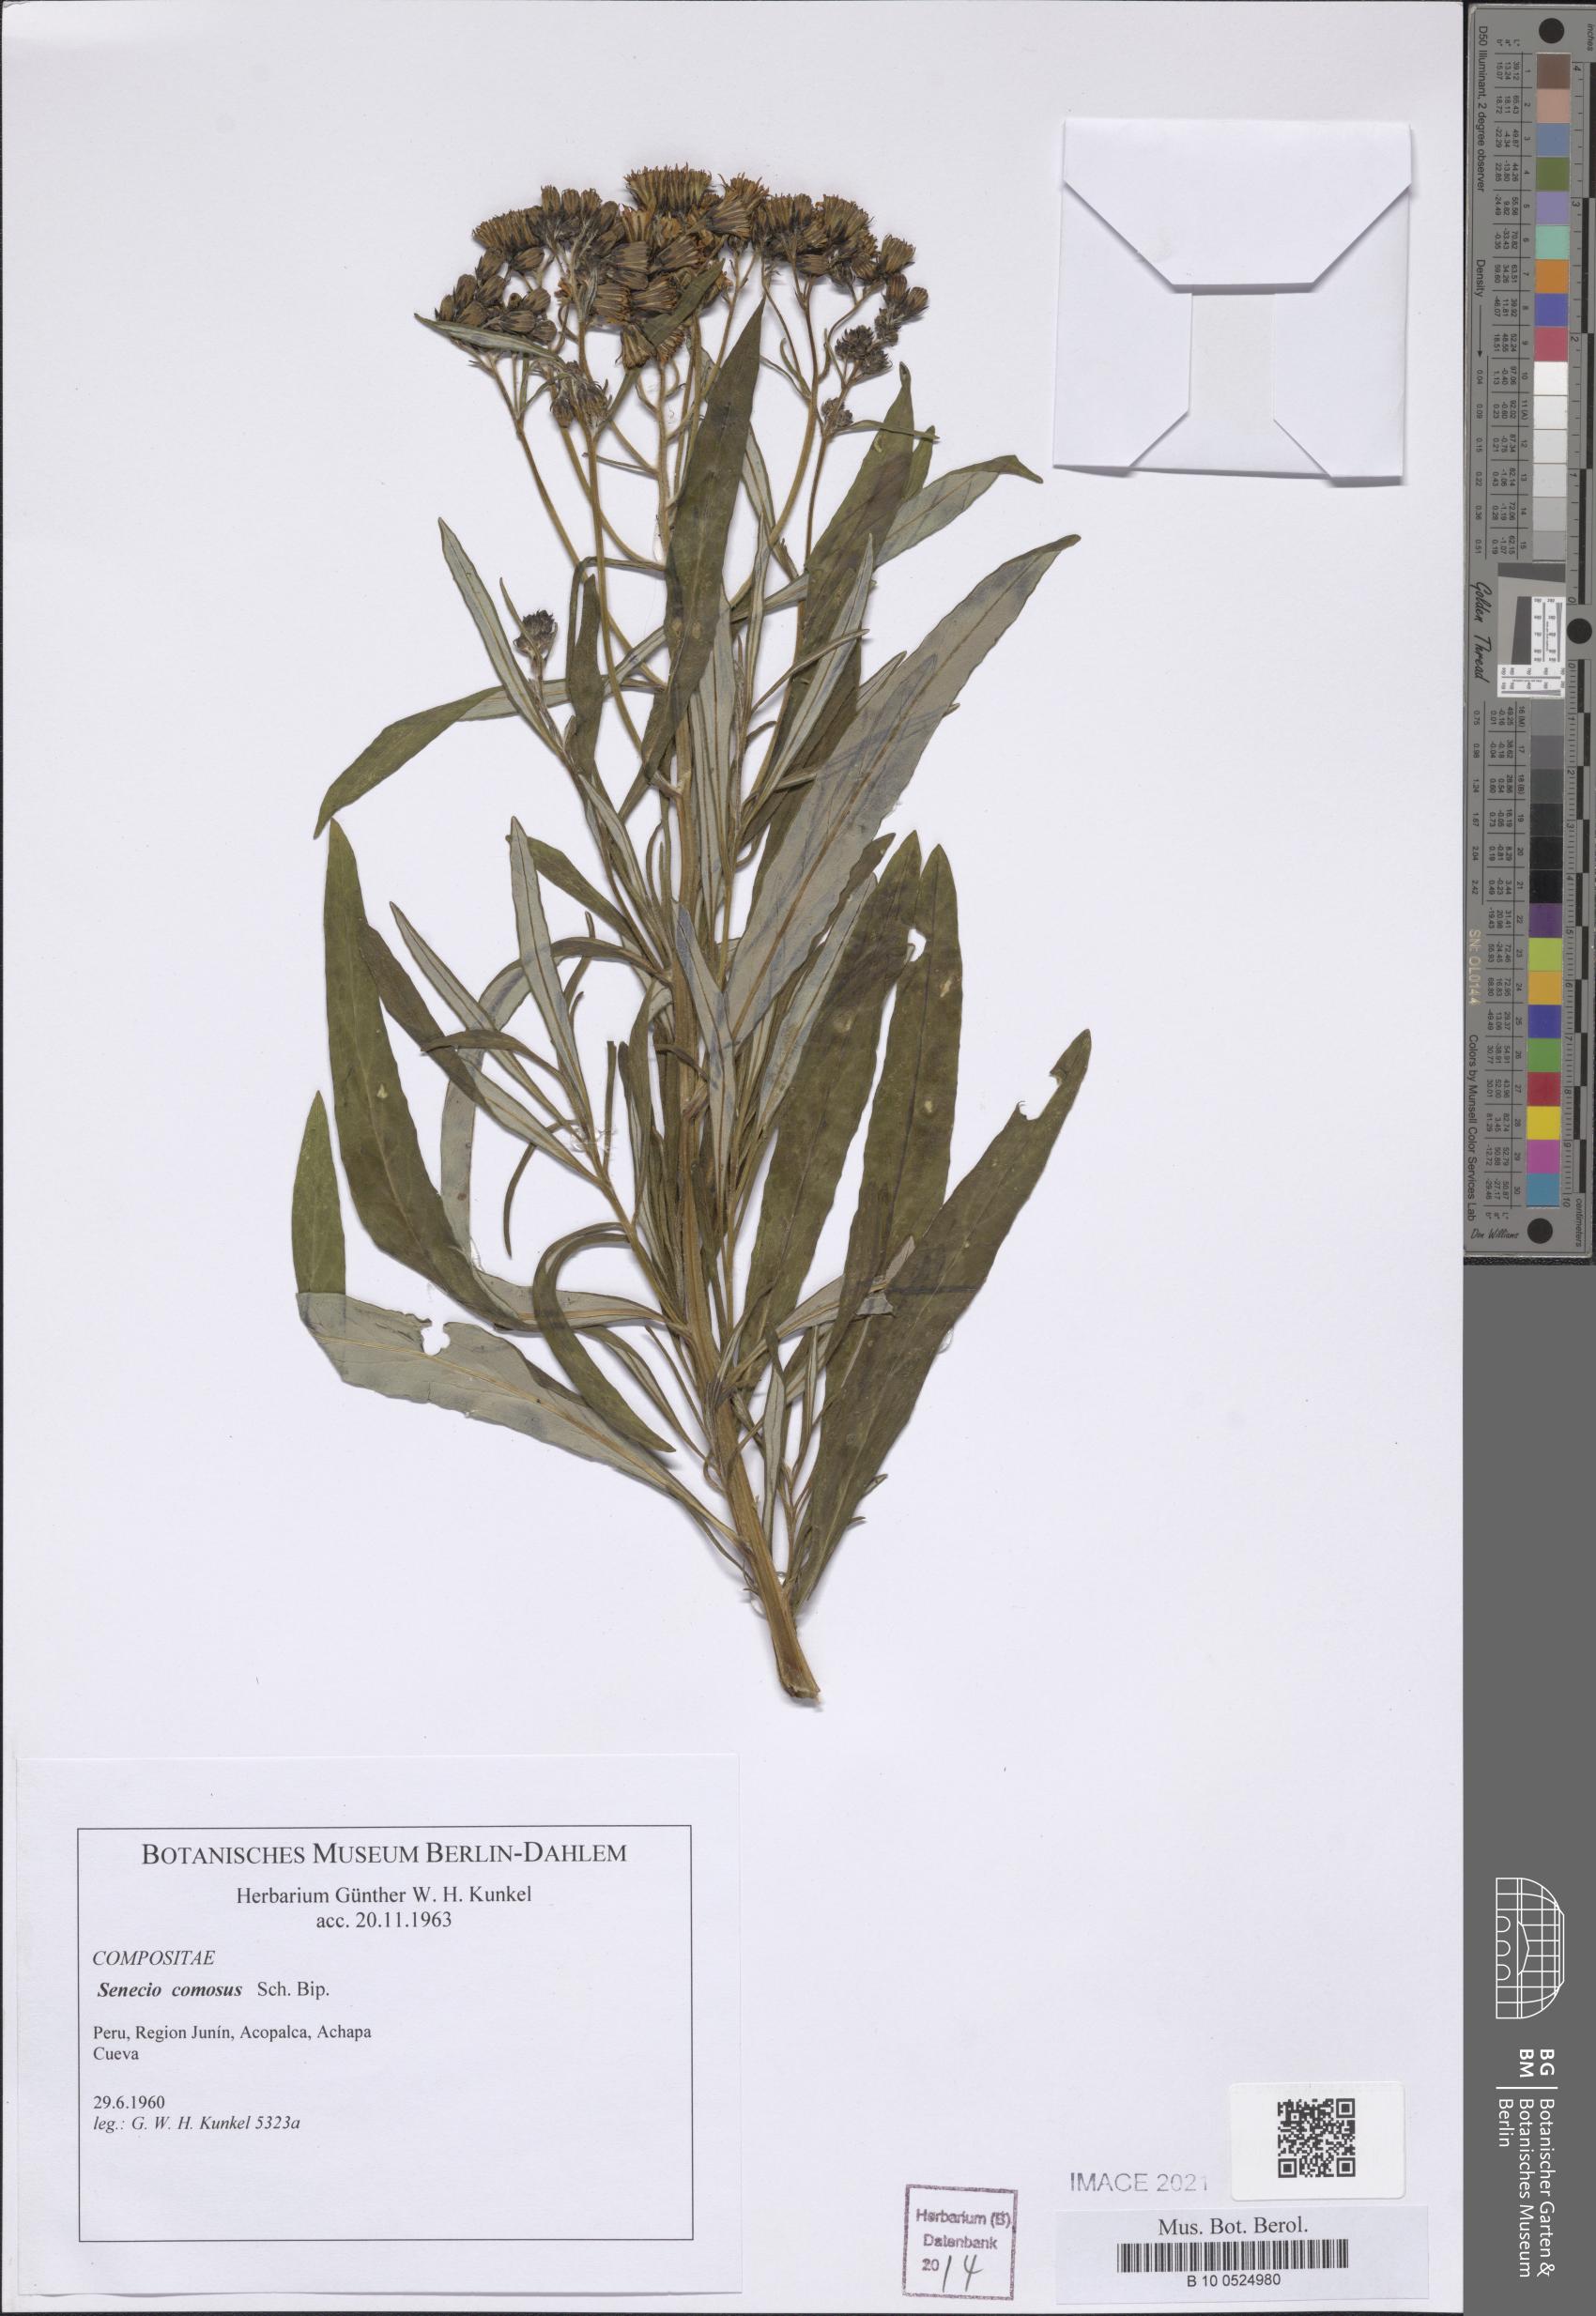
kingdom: Plantae
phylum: Tracheophyta
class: Magnoliopsida
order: Asterales
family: Asteraceae
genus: Lomanthus
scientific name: Lomanthus arnaldii
